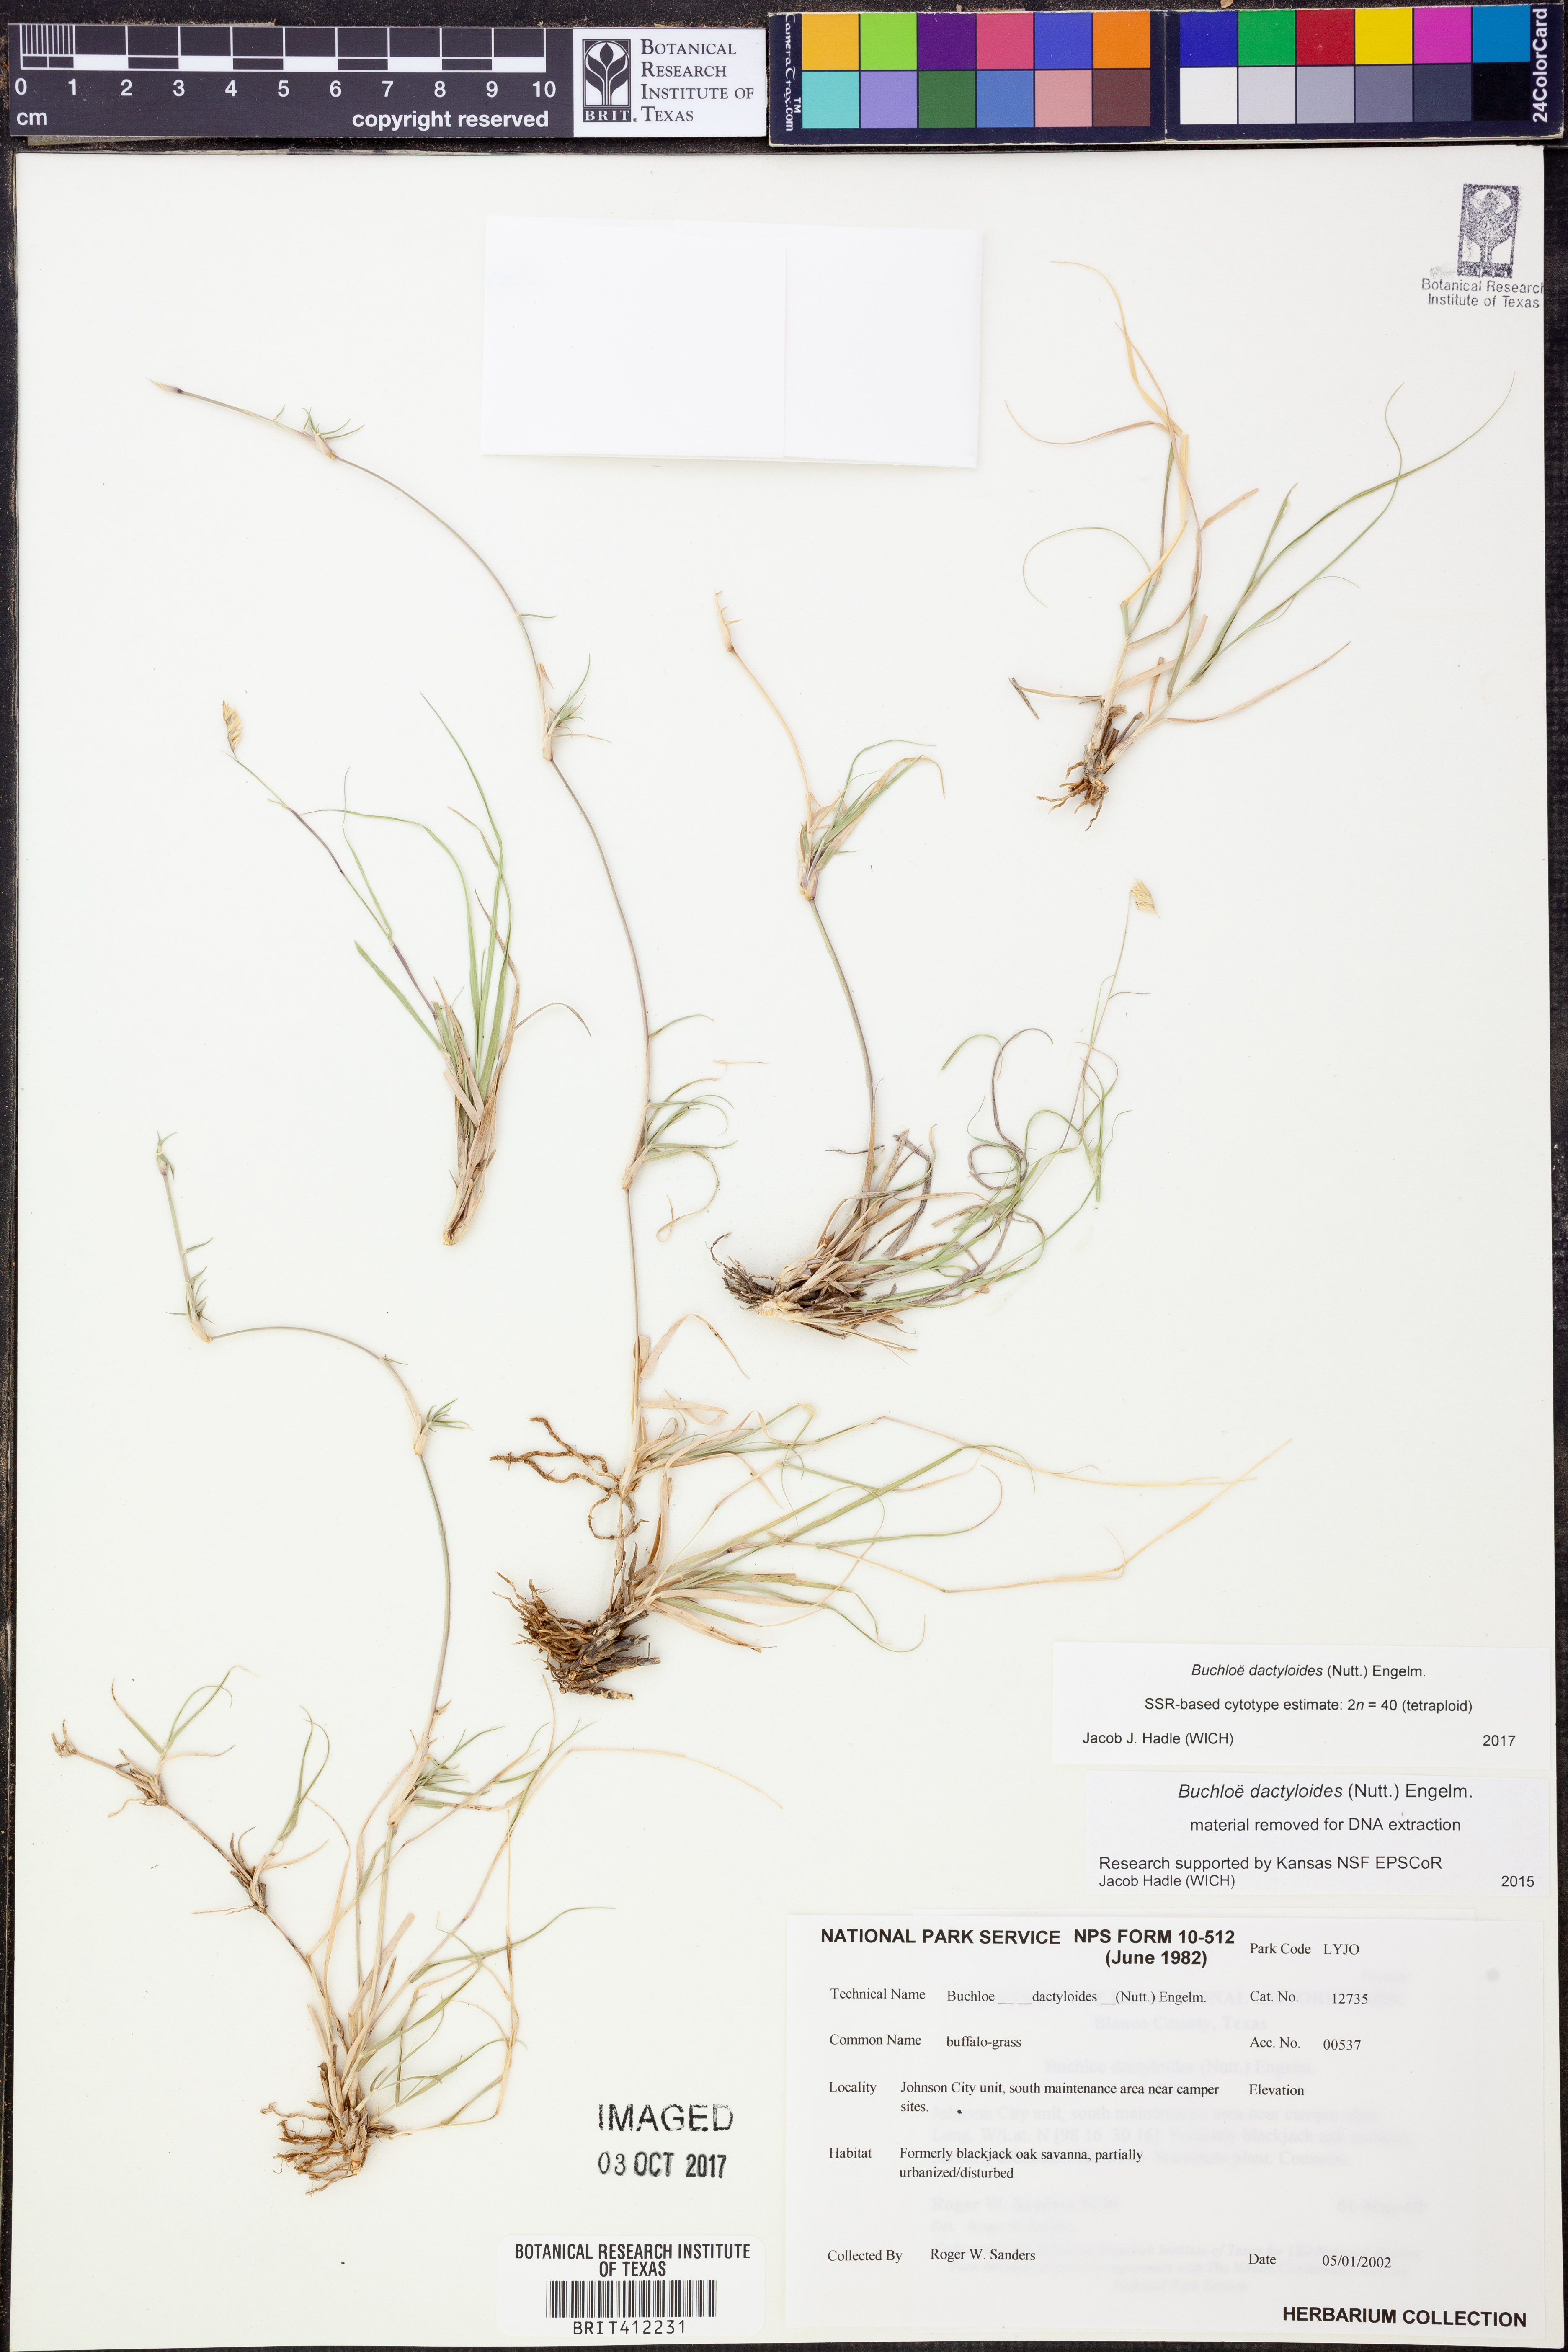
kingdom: Plantae
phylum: Tracheophyta
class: Liliopsida
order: Poales
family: Poaceae
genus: Bouteloua
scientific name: Bouteloua dactyloides
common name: Buffalo grass
